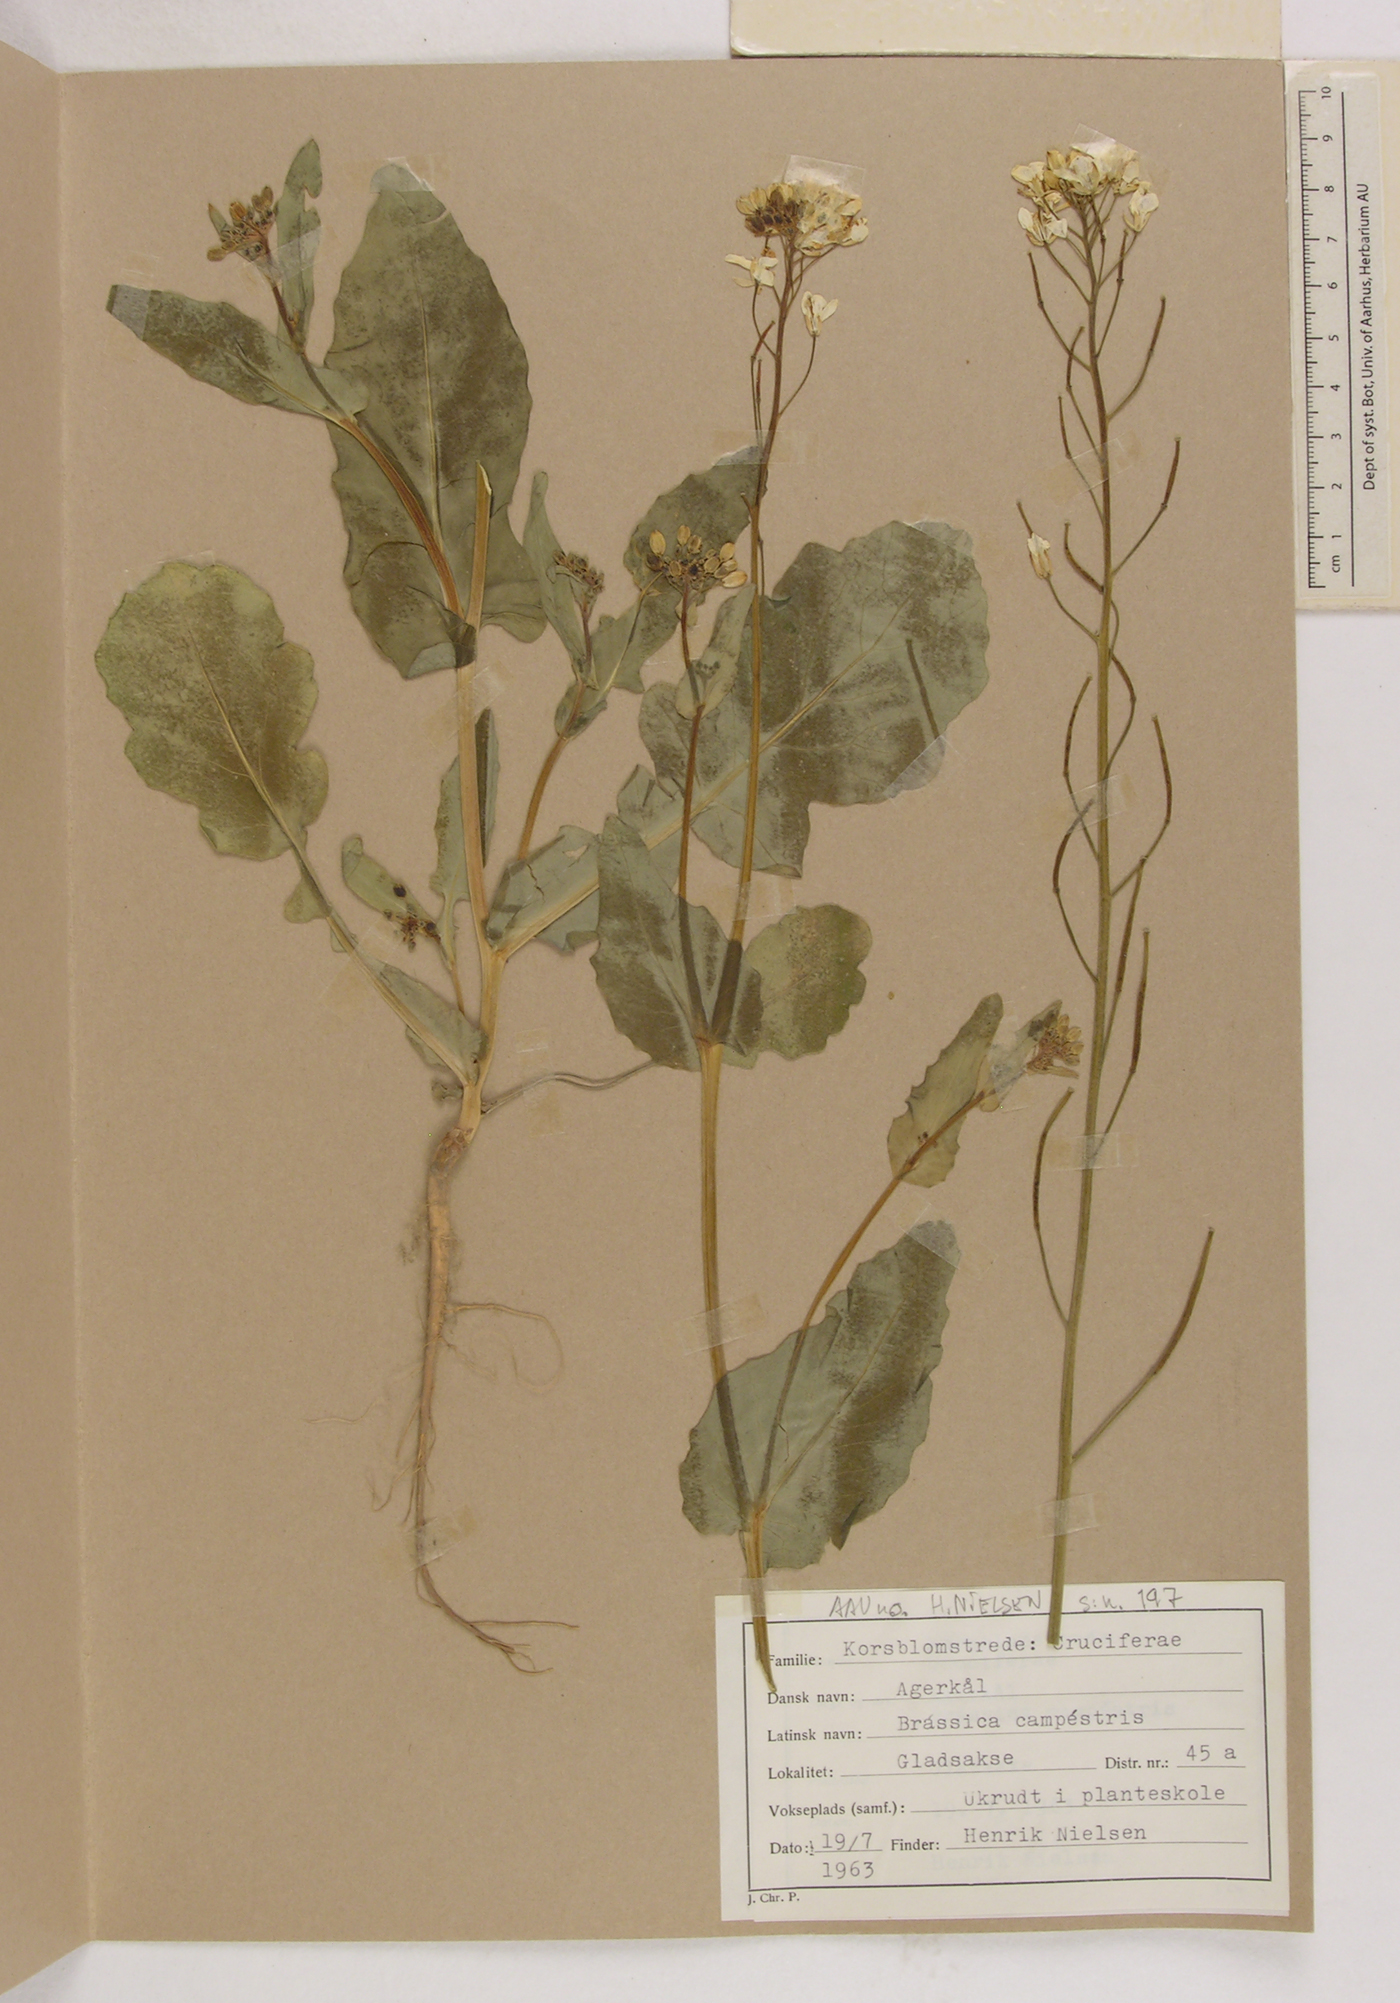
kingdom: Plantae
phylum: Tracheophyta
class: Magnoliopsida
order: Brassicales
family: Brassicaceae
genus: Brassica
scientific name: Brassica rapa
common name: Field mustard
